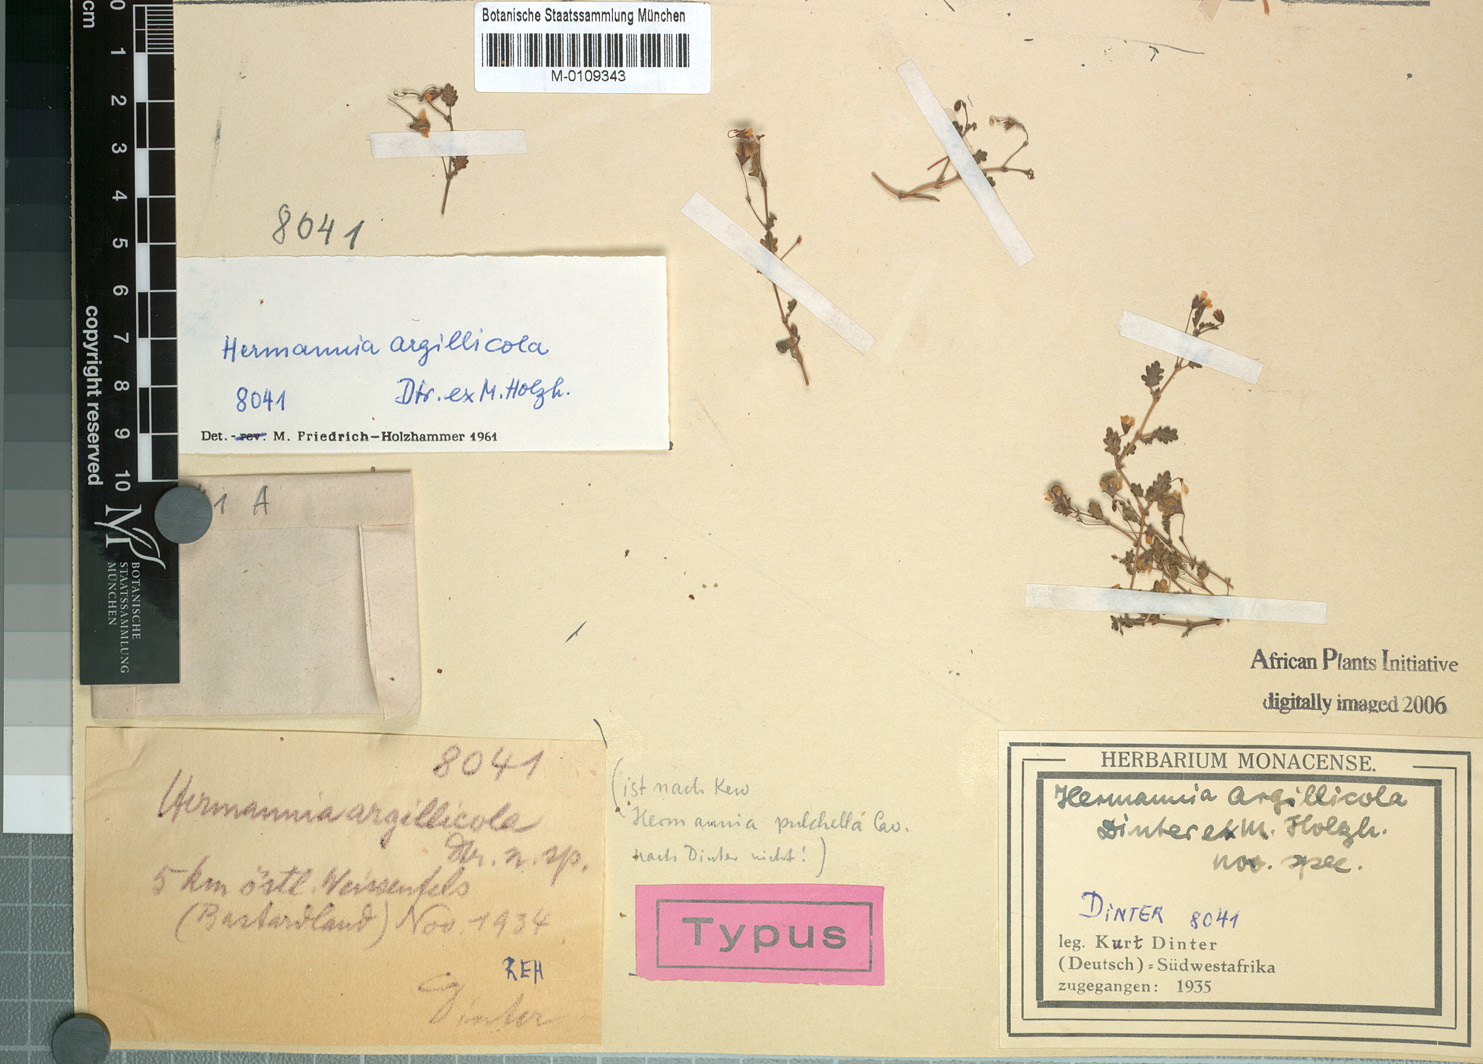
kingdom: Plantae
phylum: Tracheophyta
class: Magnoliopsida
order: Malvales
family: Malvaceae
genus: Hermannia
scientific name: Hermannia argillicola
